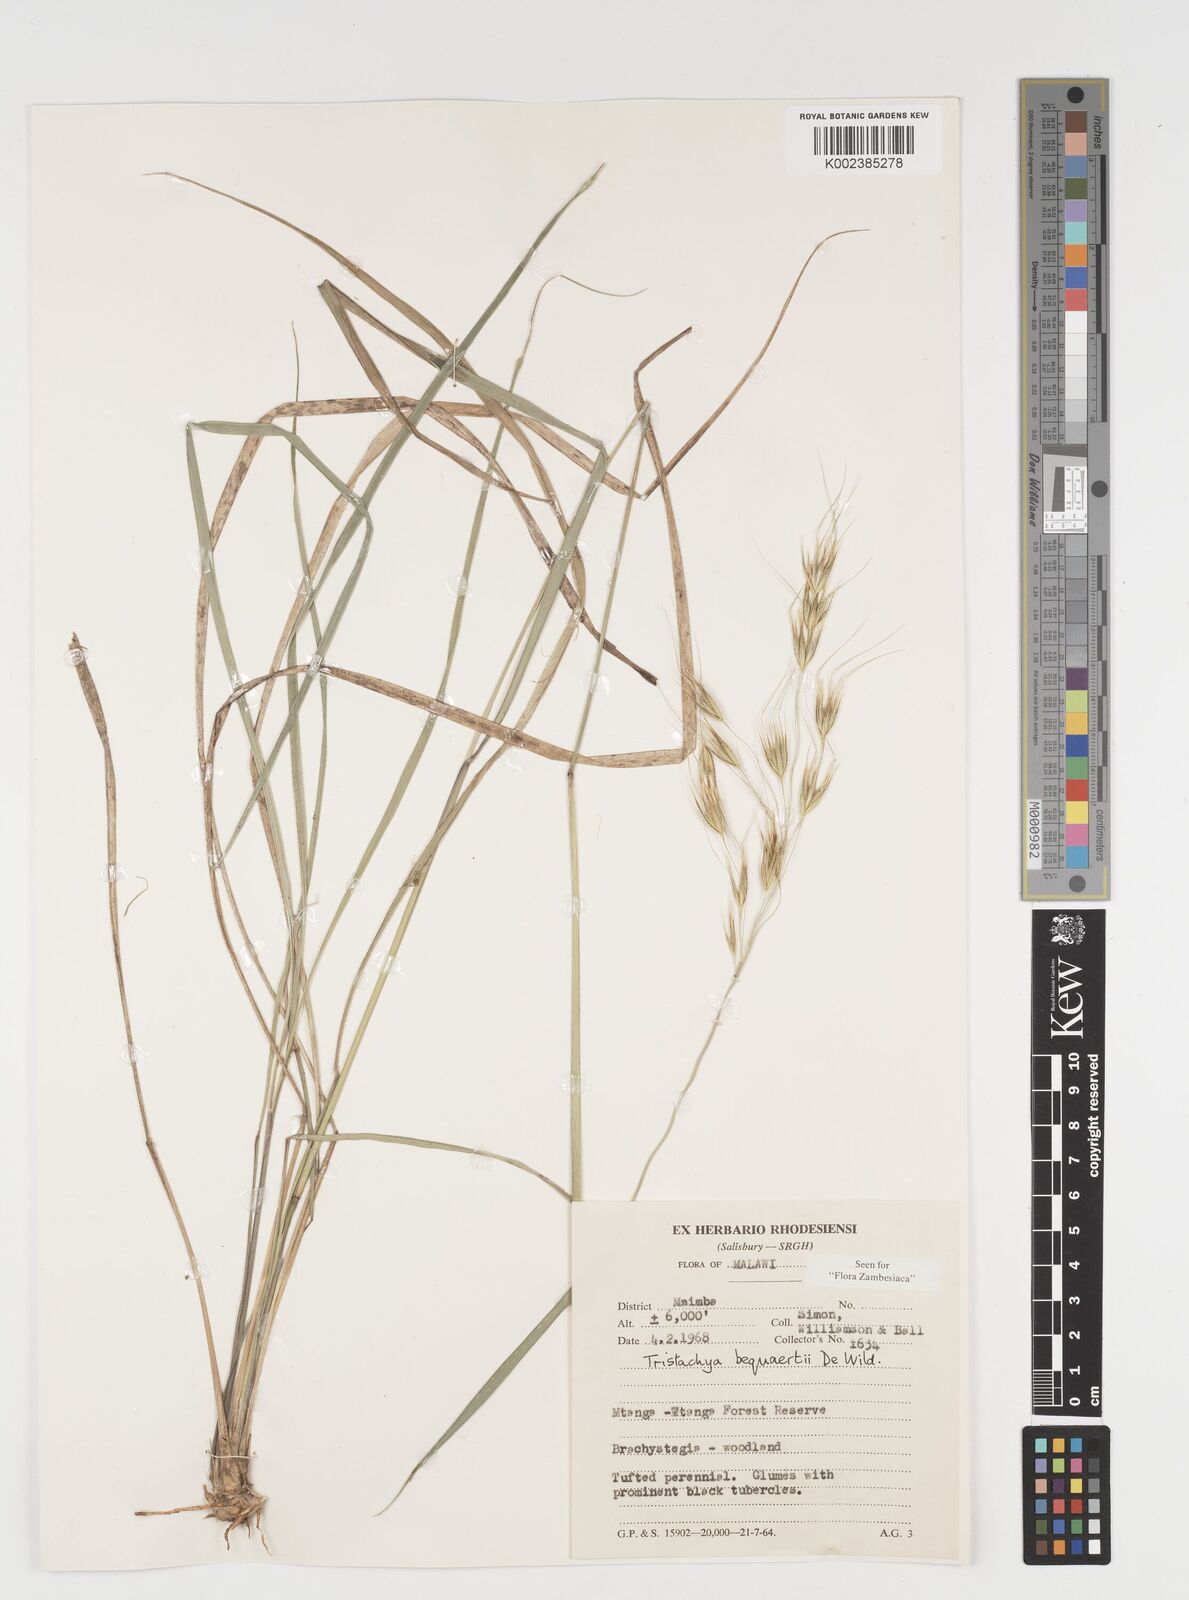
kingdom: Plantae
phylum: Tracheophyta
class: Liliopsida
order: Poales
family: Poaceae
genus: Tristachya
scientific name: Tristachya bequaertii
